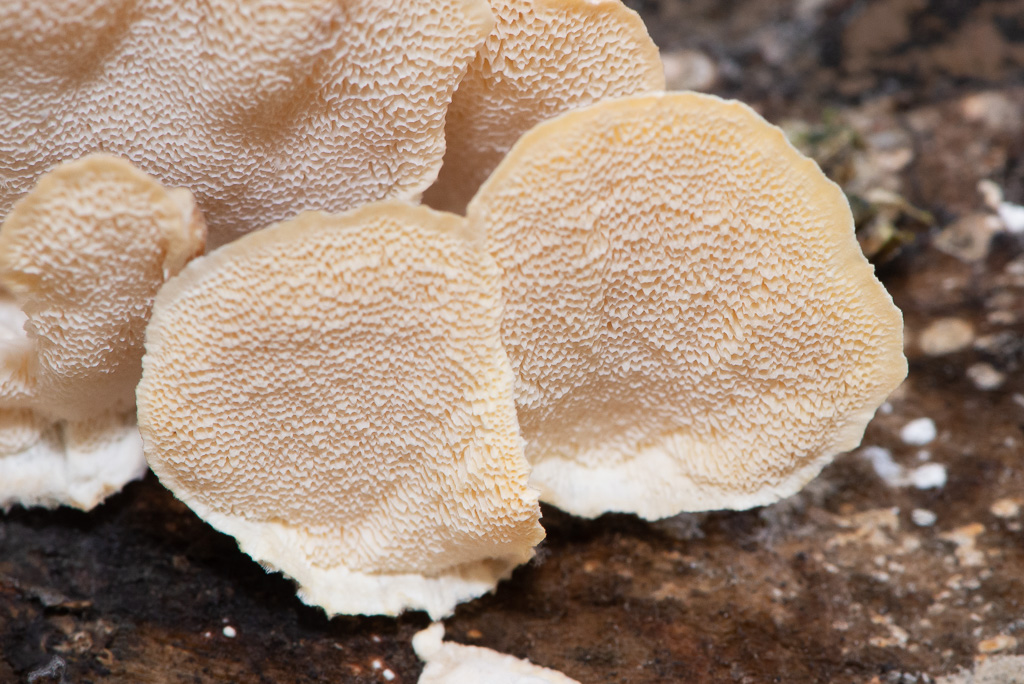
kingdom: Fungi
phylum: Basidiomycota
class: Agaricomycetes
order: Polyporales
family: Polyporaceae
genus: Trametes
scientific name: Trametes versicolor
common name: broget læderporesvamp
